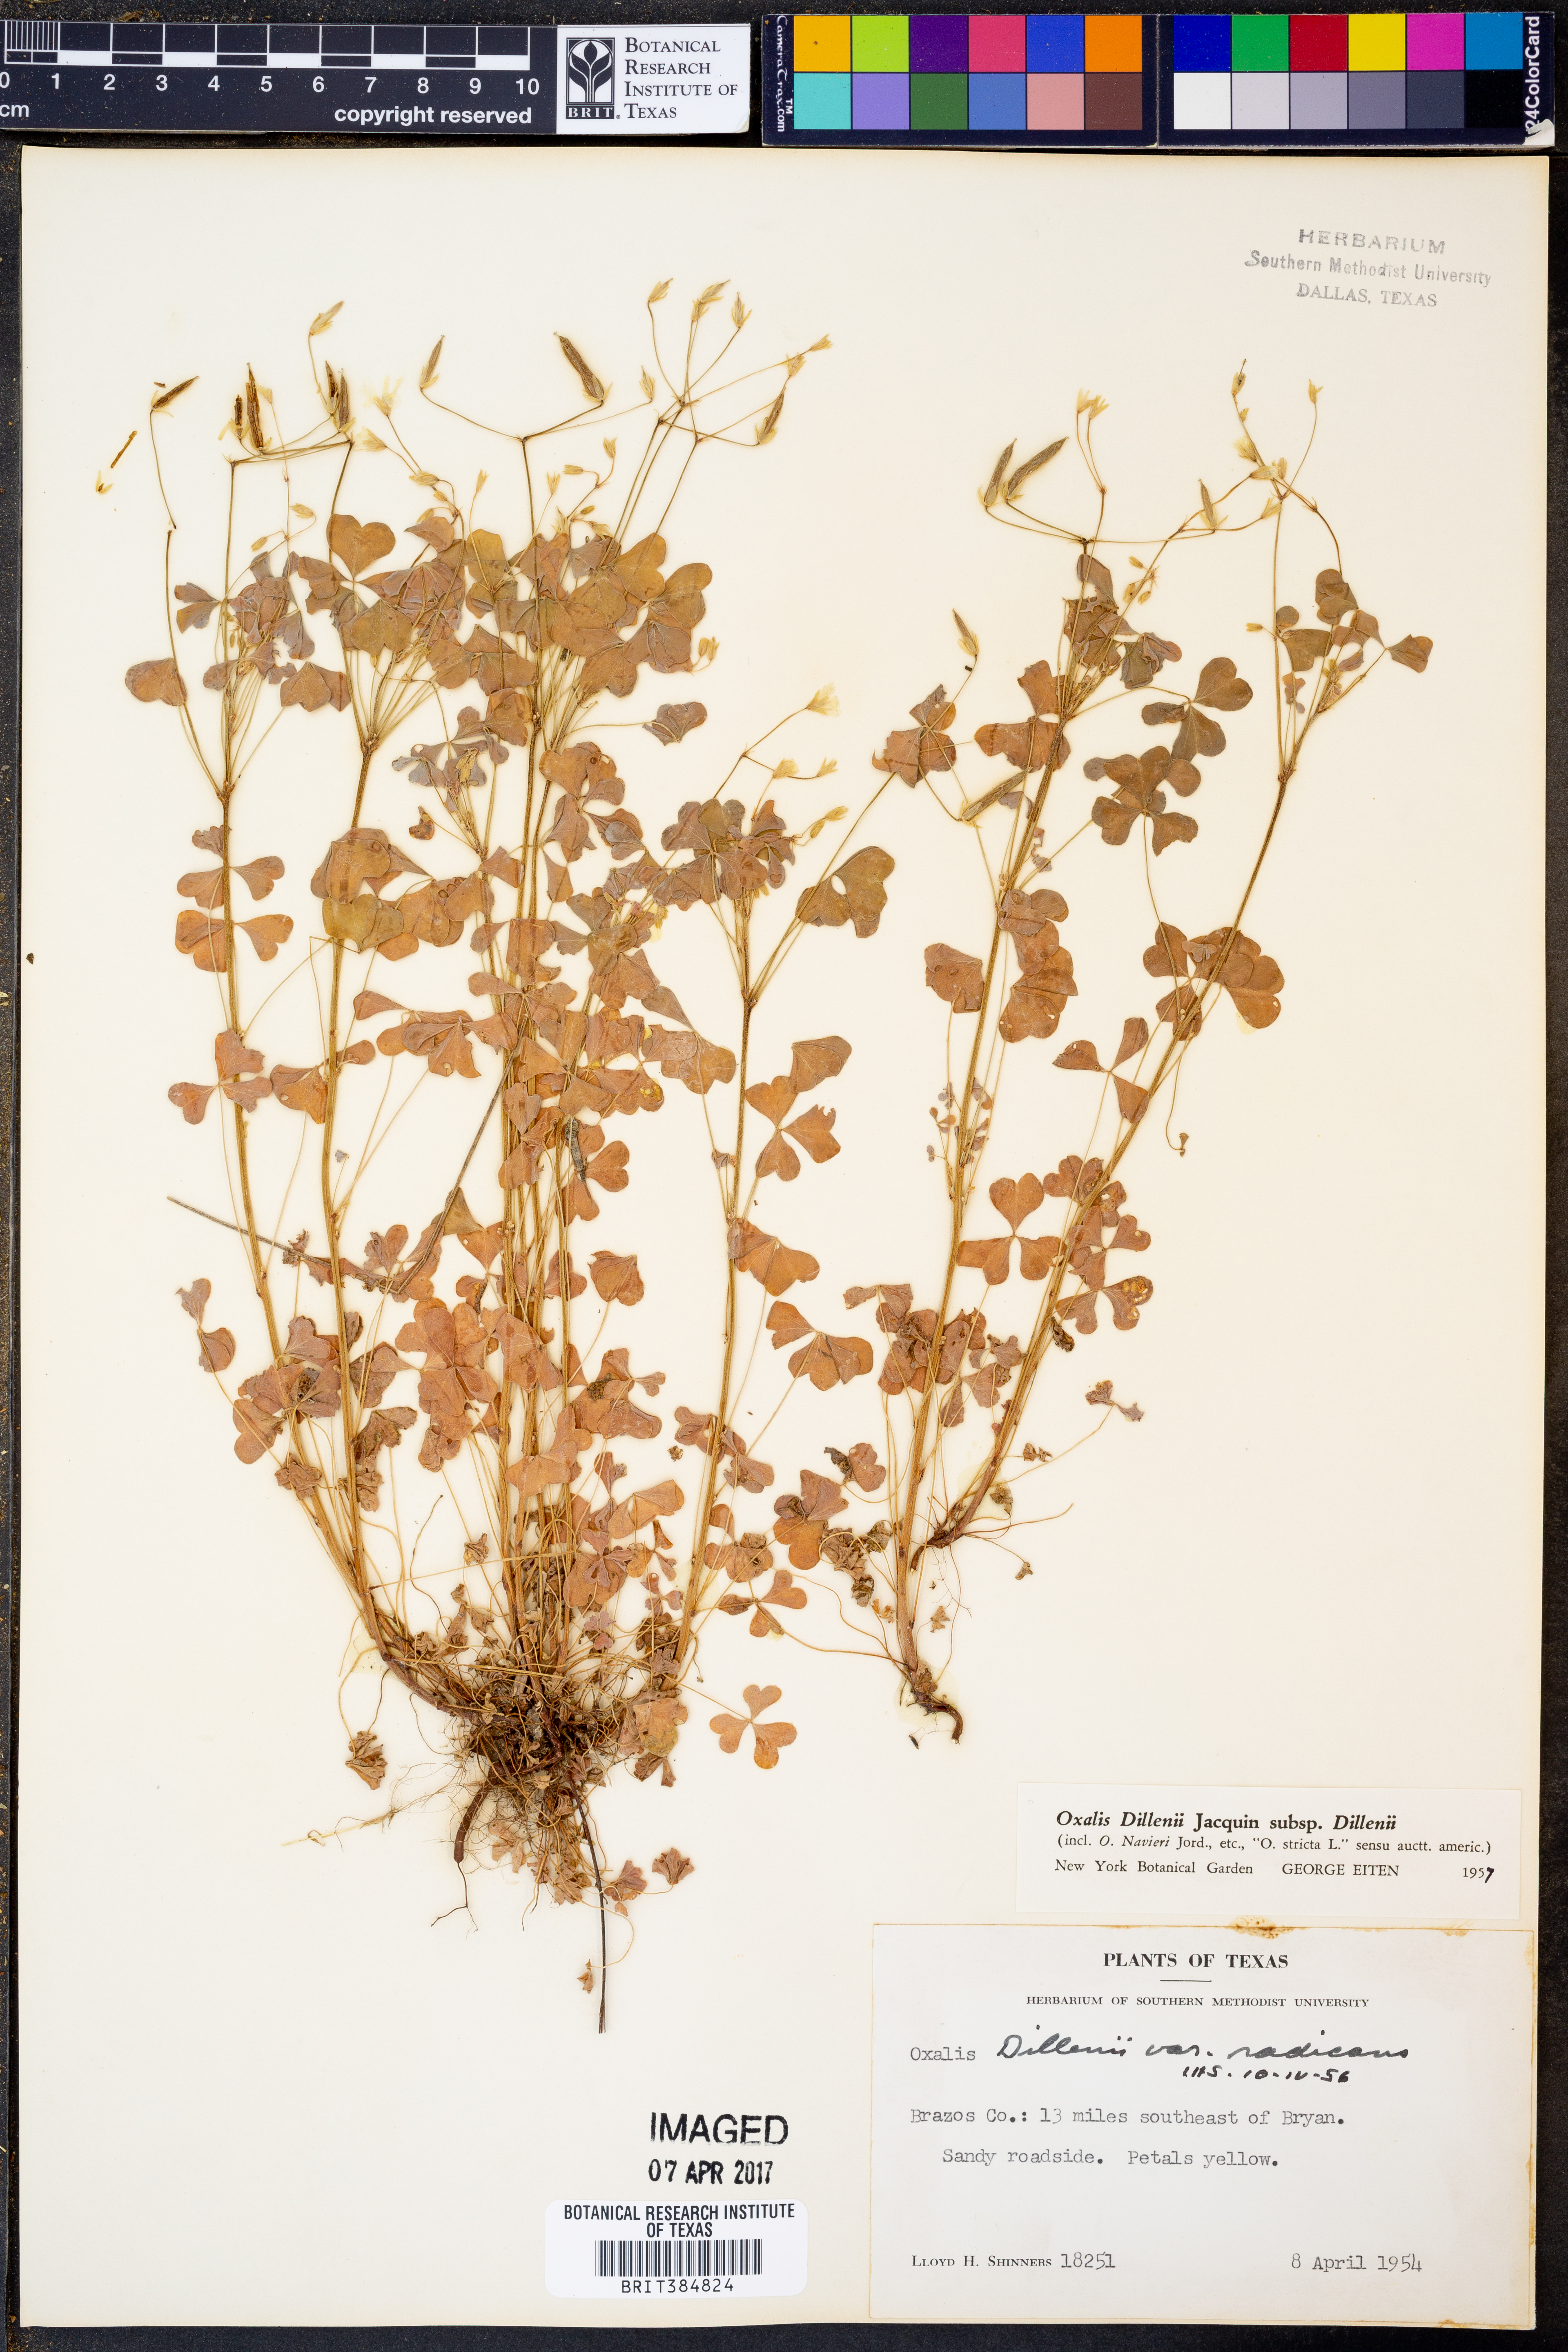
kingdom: Plantae
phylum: Tracheophyta
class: Magnoliopsida
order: Oxalidales
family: Oxalidaceae
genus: Oxalis
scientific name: Oxalis dillenii
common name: Sussex yellow-sorrel
